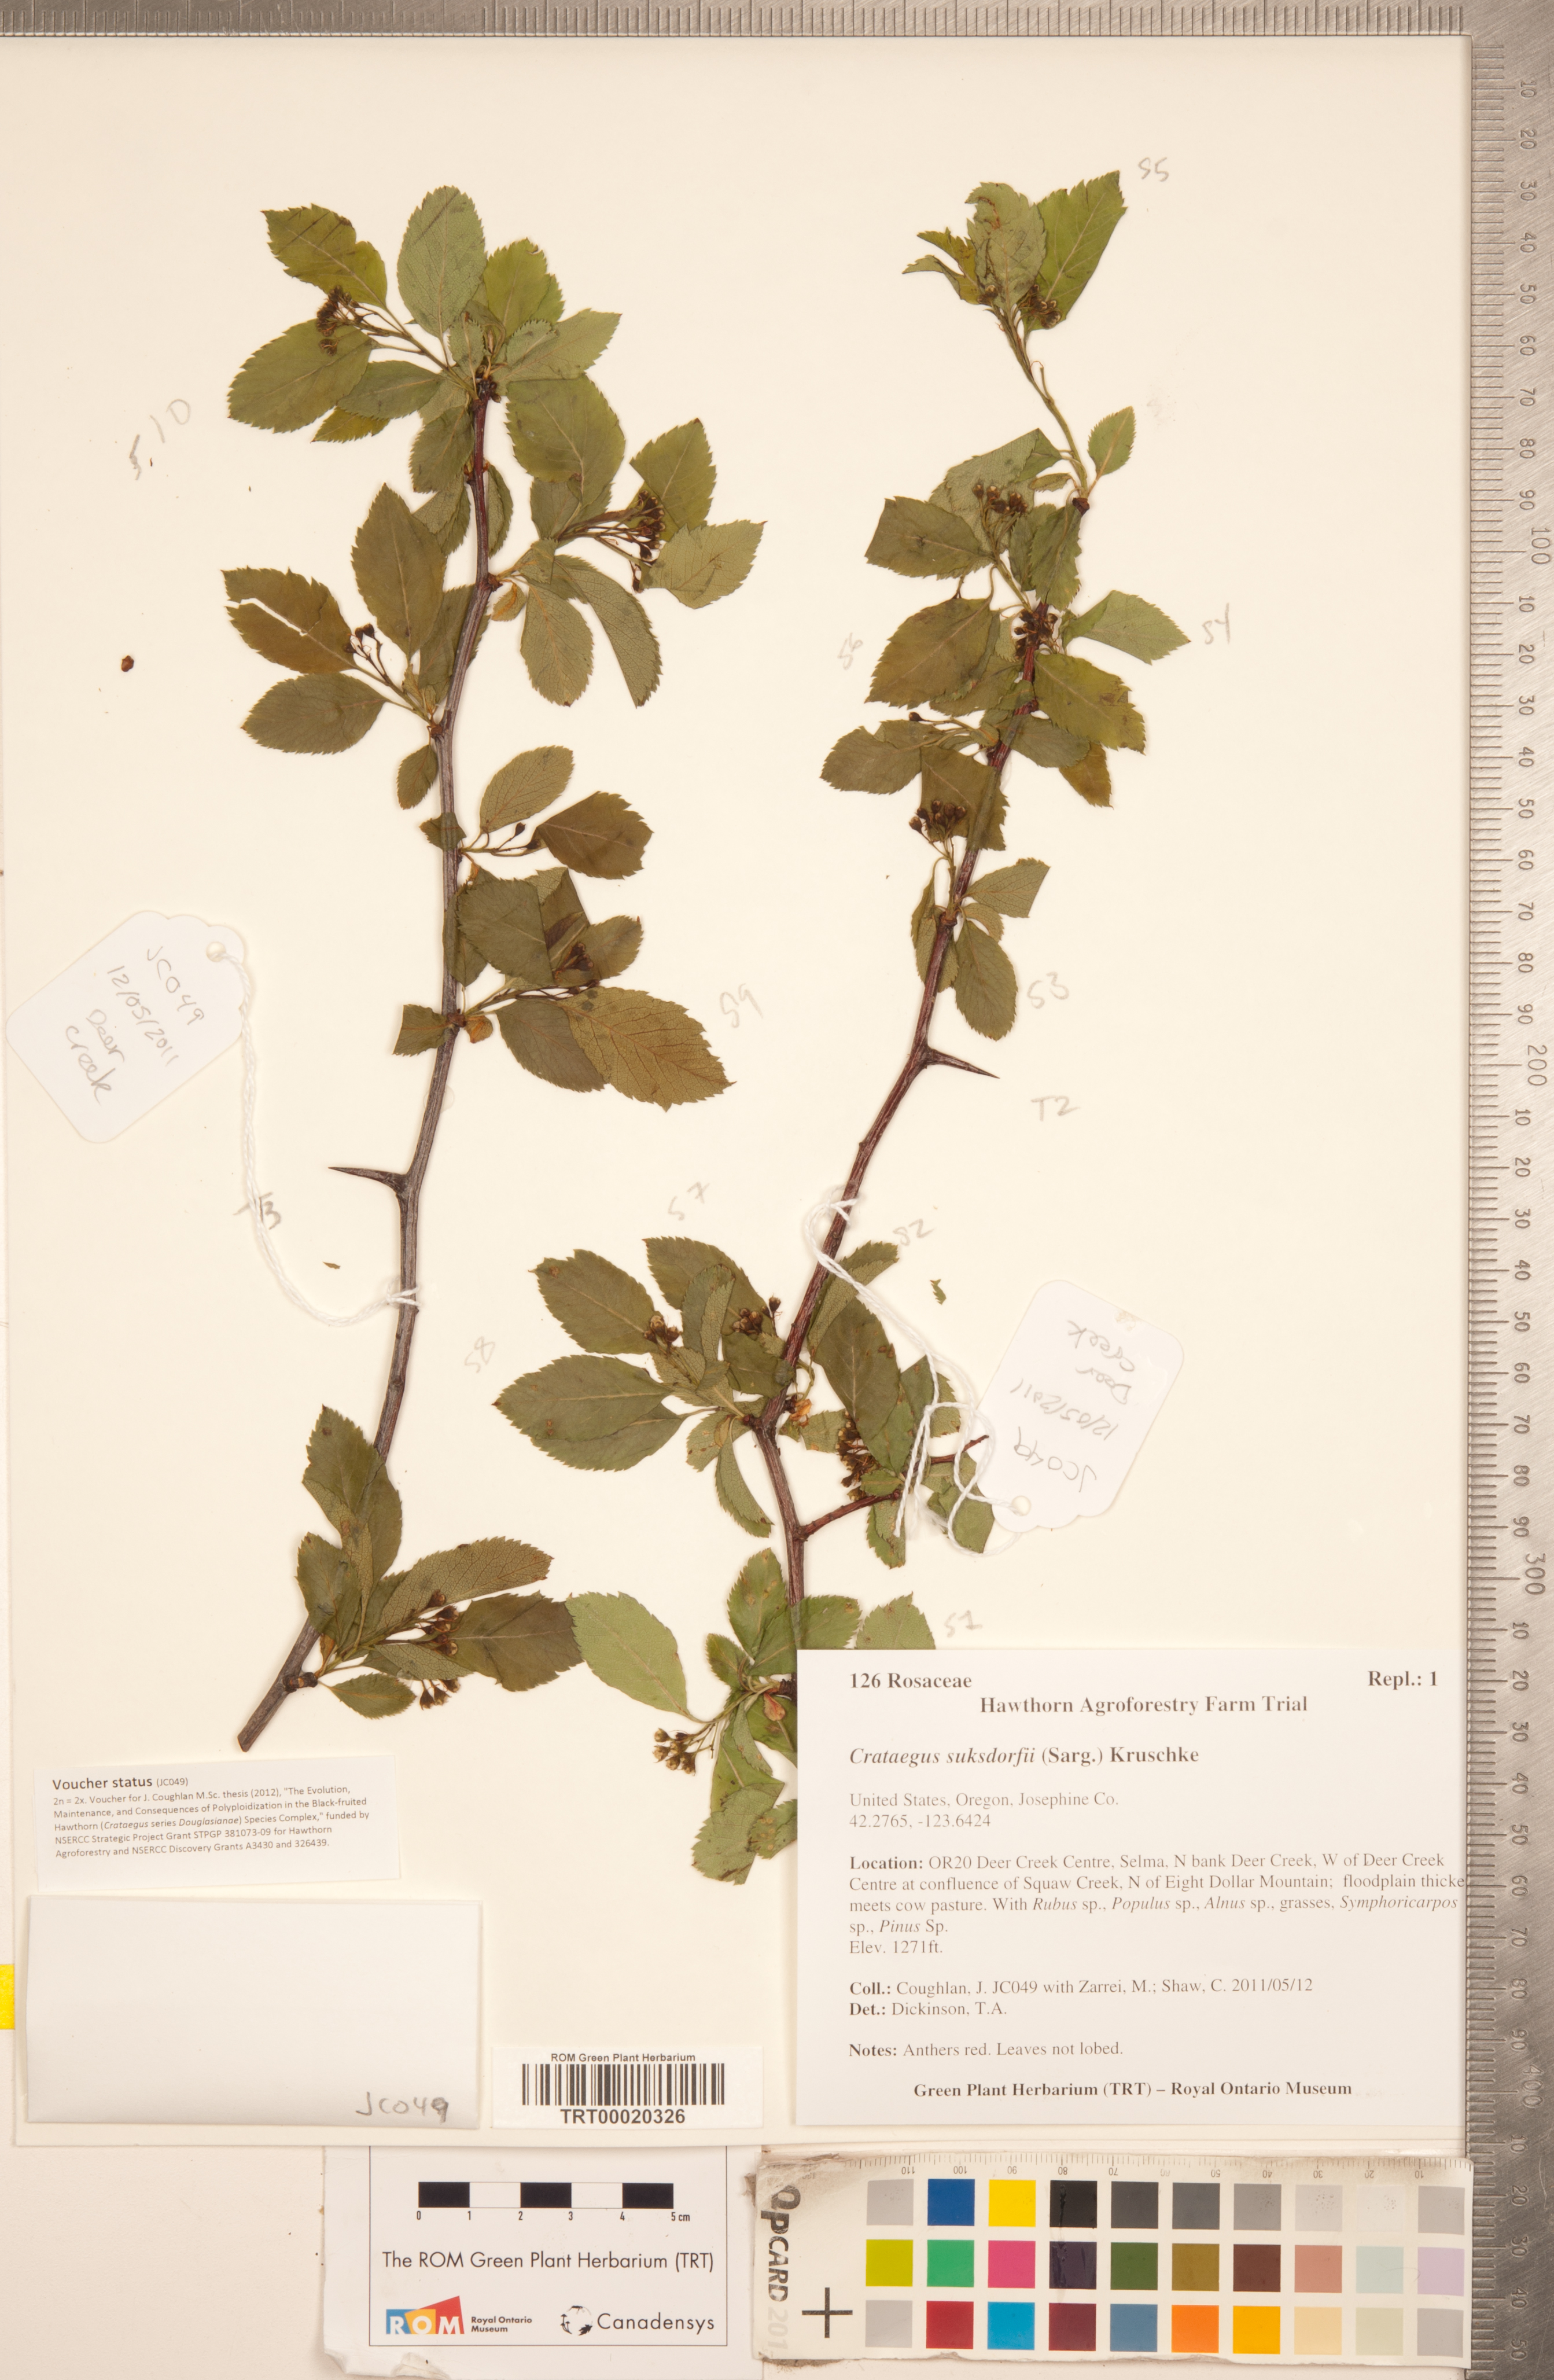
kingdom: Plantae
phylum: Tracheophyta
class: Magnoliopsida
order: Rosales
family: Rosaceae
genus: Crataegus
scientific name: Crataegus gaylussacia
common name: Huckleberry hawthorn
